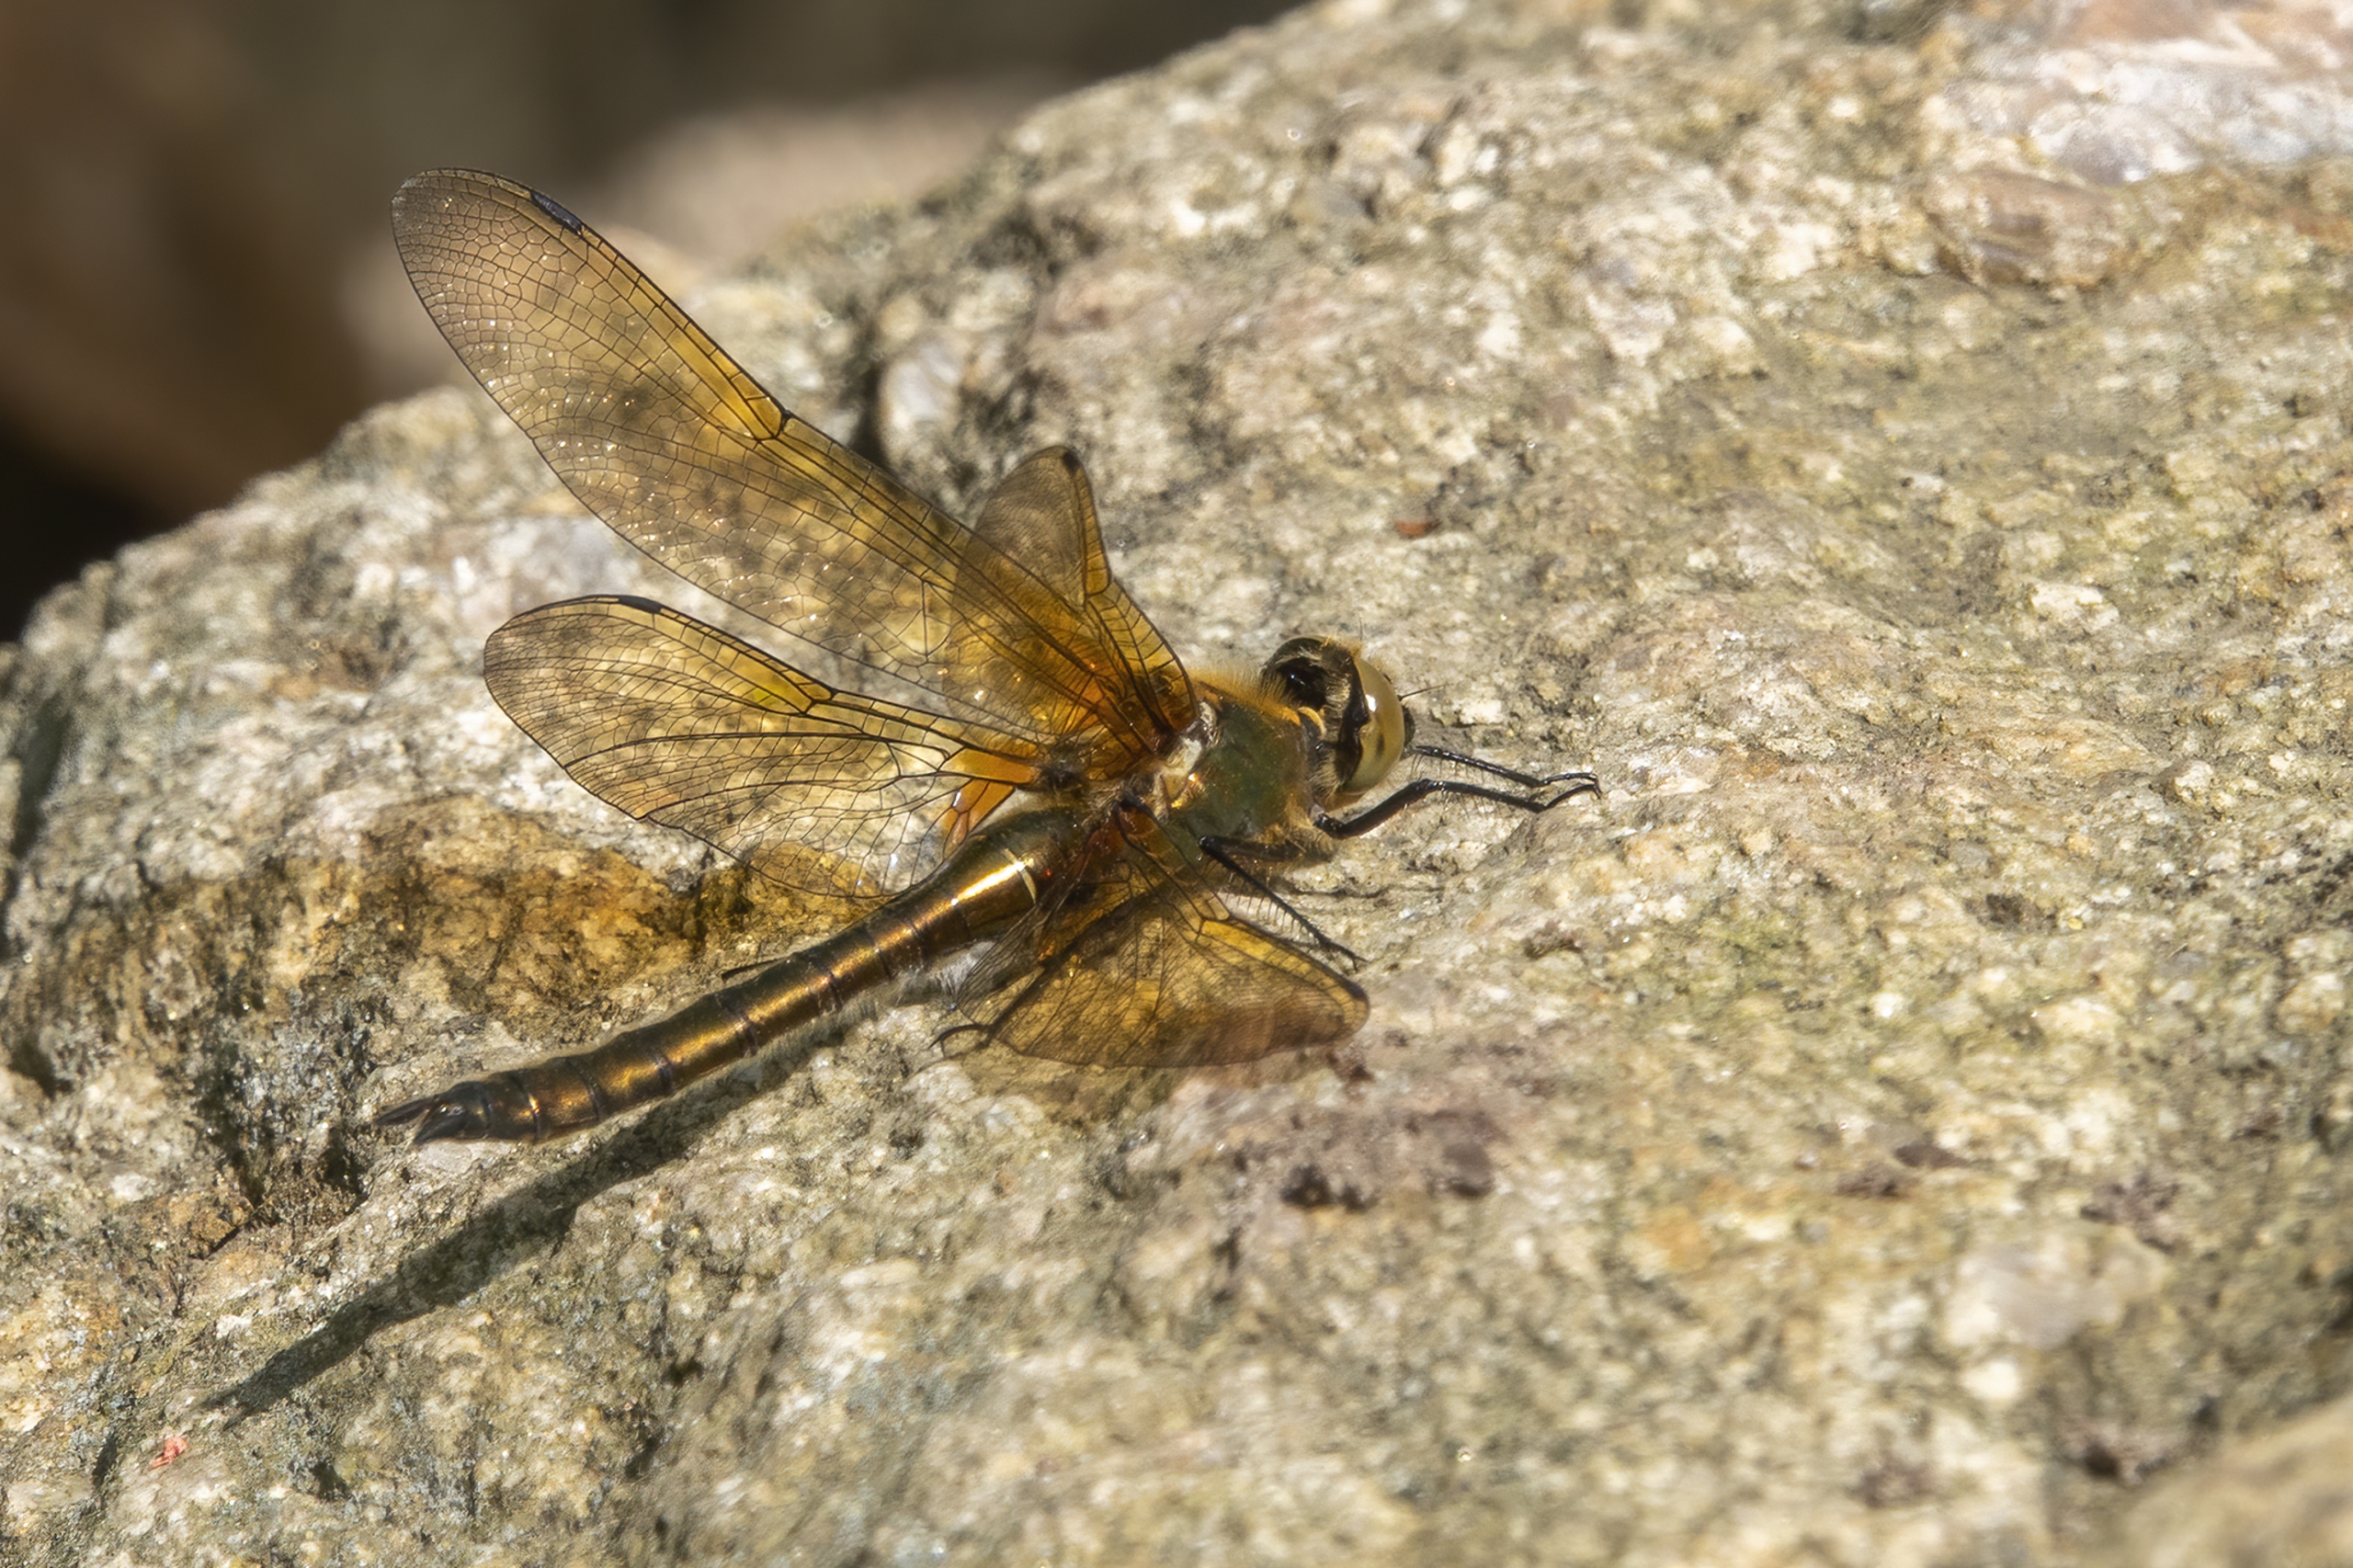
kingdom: Animalia
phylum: Arthropoda
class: Insecta
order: Odonata
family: Corduliidae
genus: Cordulia
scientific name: Cordulia aenea
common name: Grøn smaragdlibel
